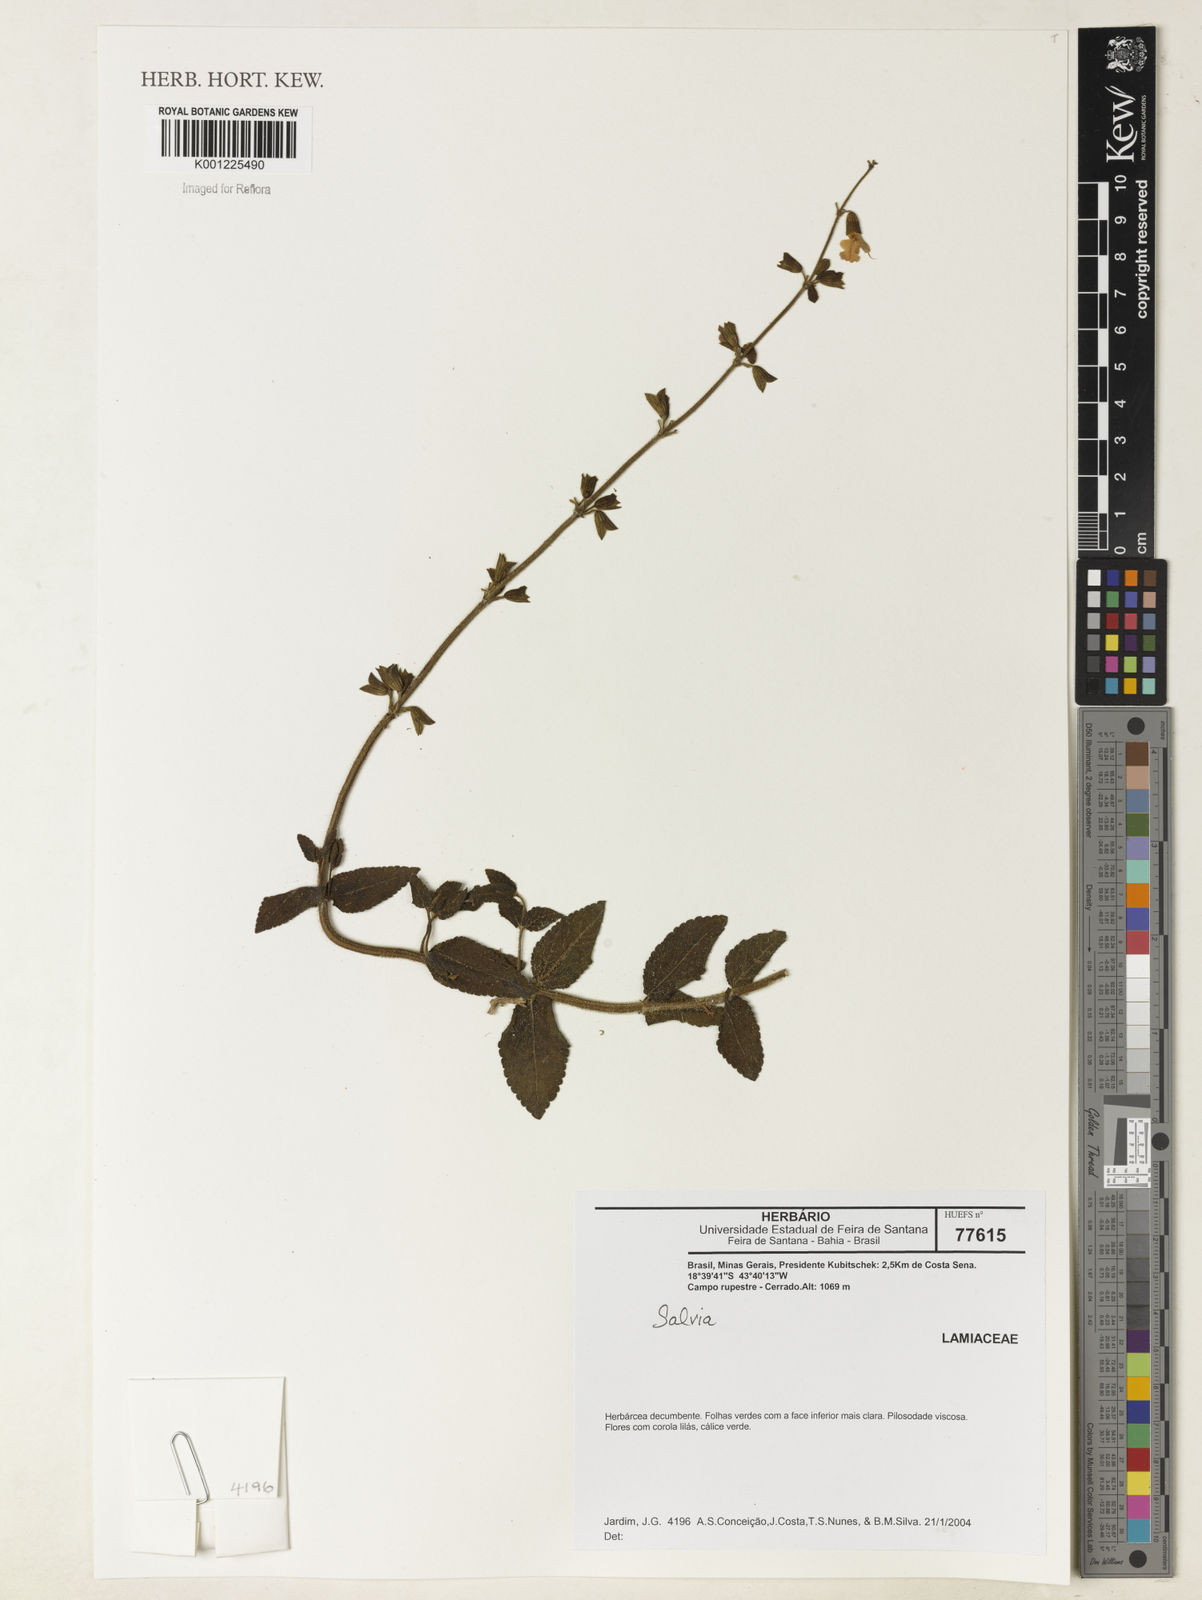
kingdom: Plantae
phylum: Tracheophyta
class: Magnoliopsida
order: Lamiales
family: Lamiaceae
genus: Salvia
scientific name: Salvia
